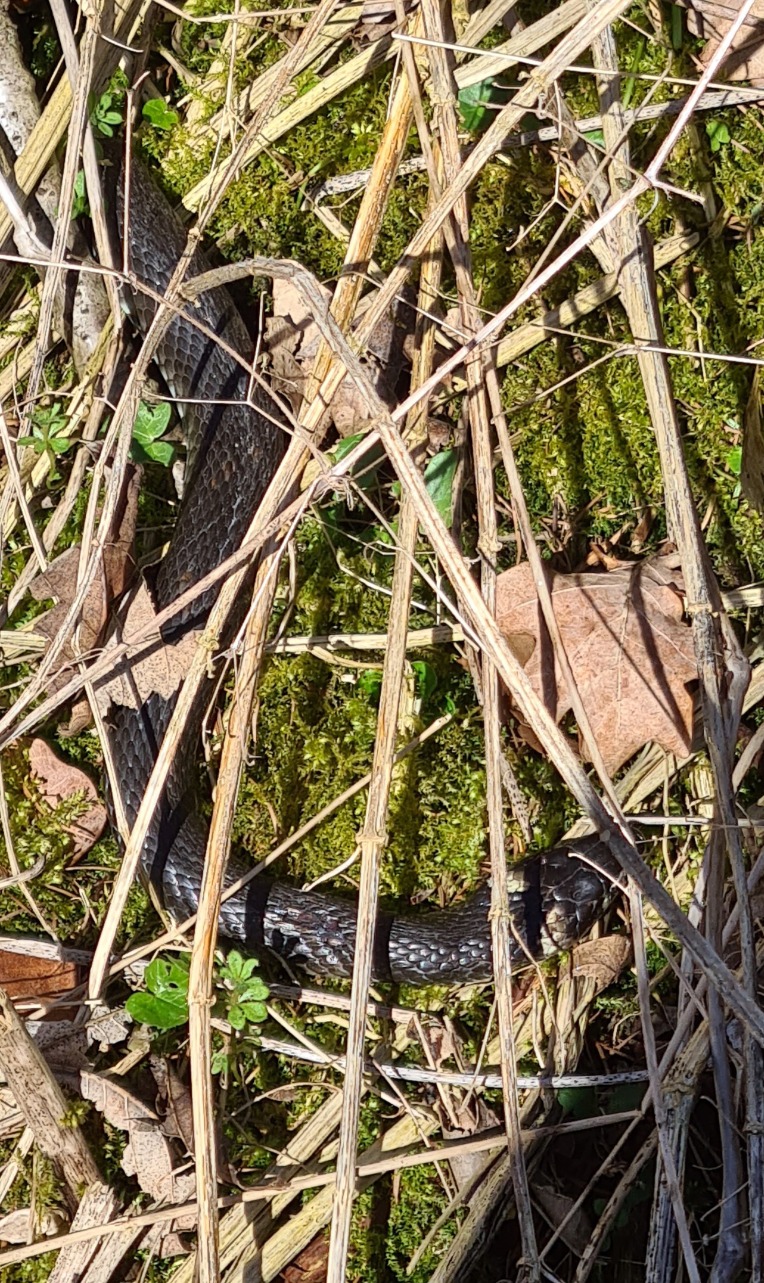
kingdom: Animalia
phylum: Chordata
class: Squamata
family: Colubridae
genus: Natrix
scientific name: Natrix natrix
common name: Snog
